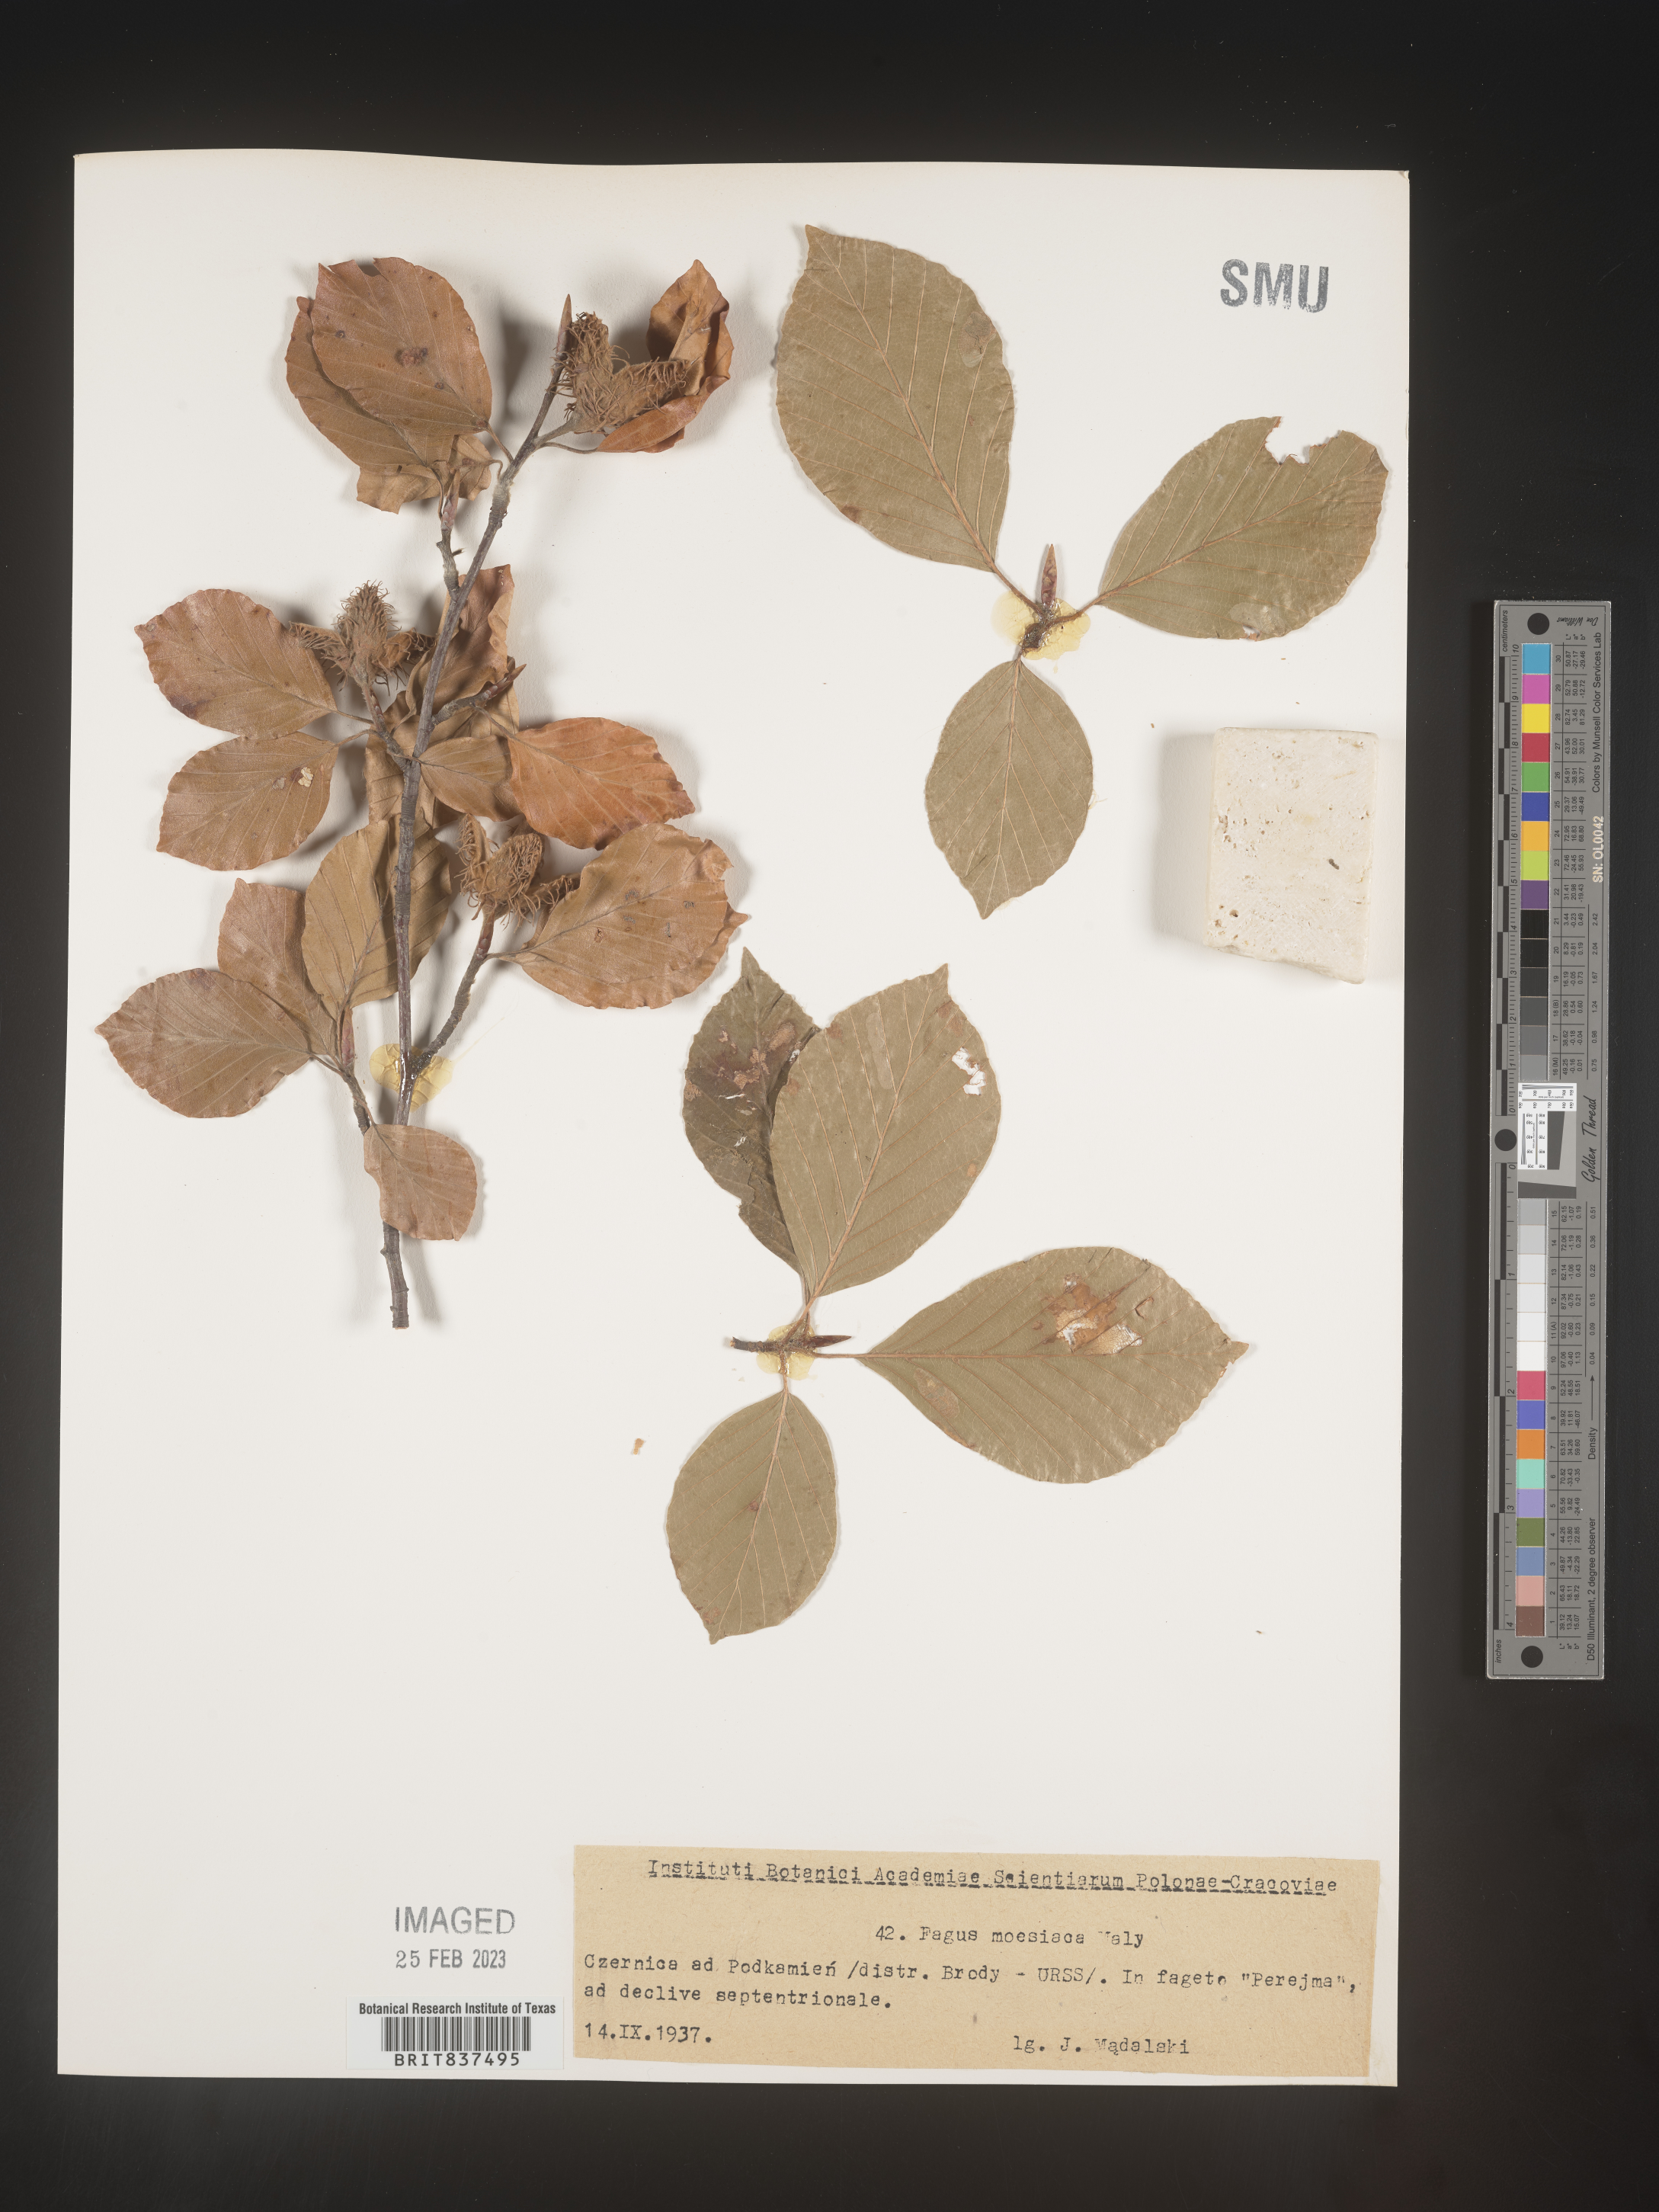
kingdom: Plantae
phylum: Tracheophyta
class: Magnoliopsida
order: Fagales
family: Fagaceae
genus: Fagus
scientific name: Fagus
